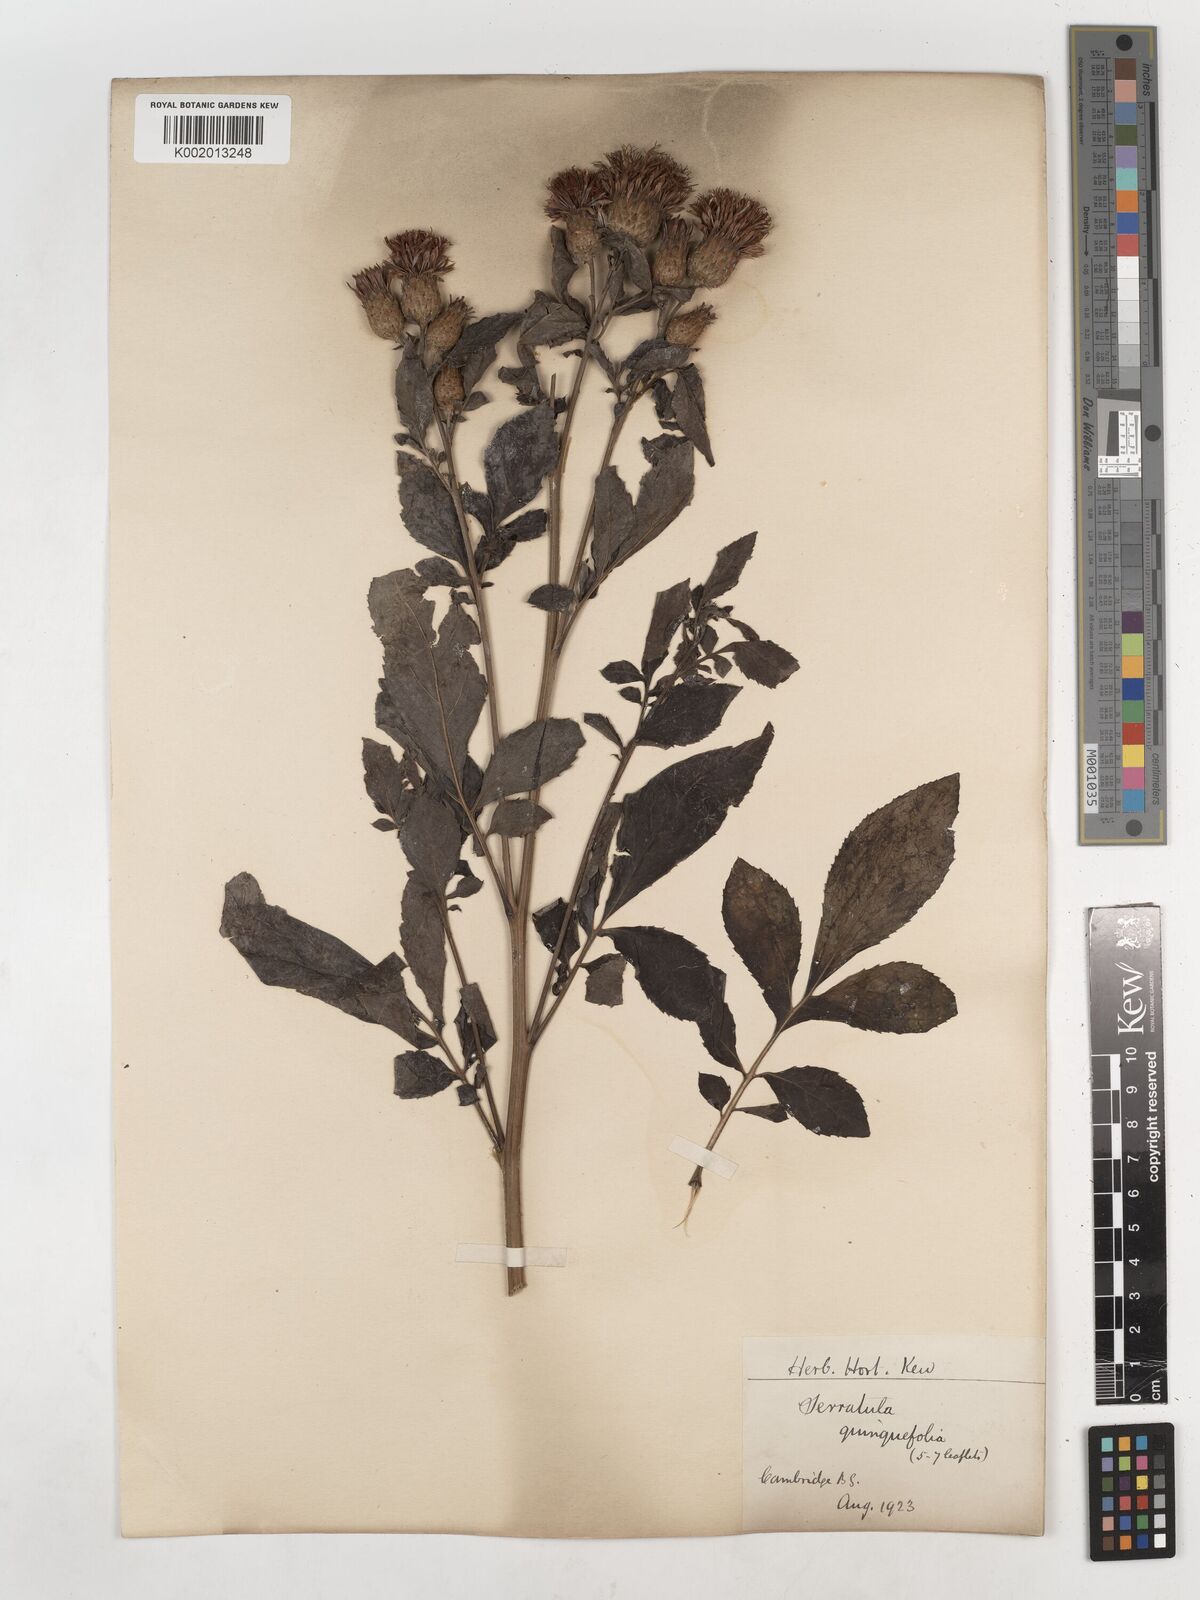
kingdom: Plantae
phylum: Tracheophyta
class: Magnoliopsida
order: Asterales
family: Asteraceae
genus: Serratula
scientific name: Serratula
